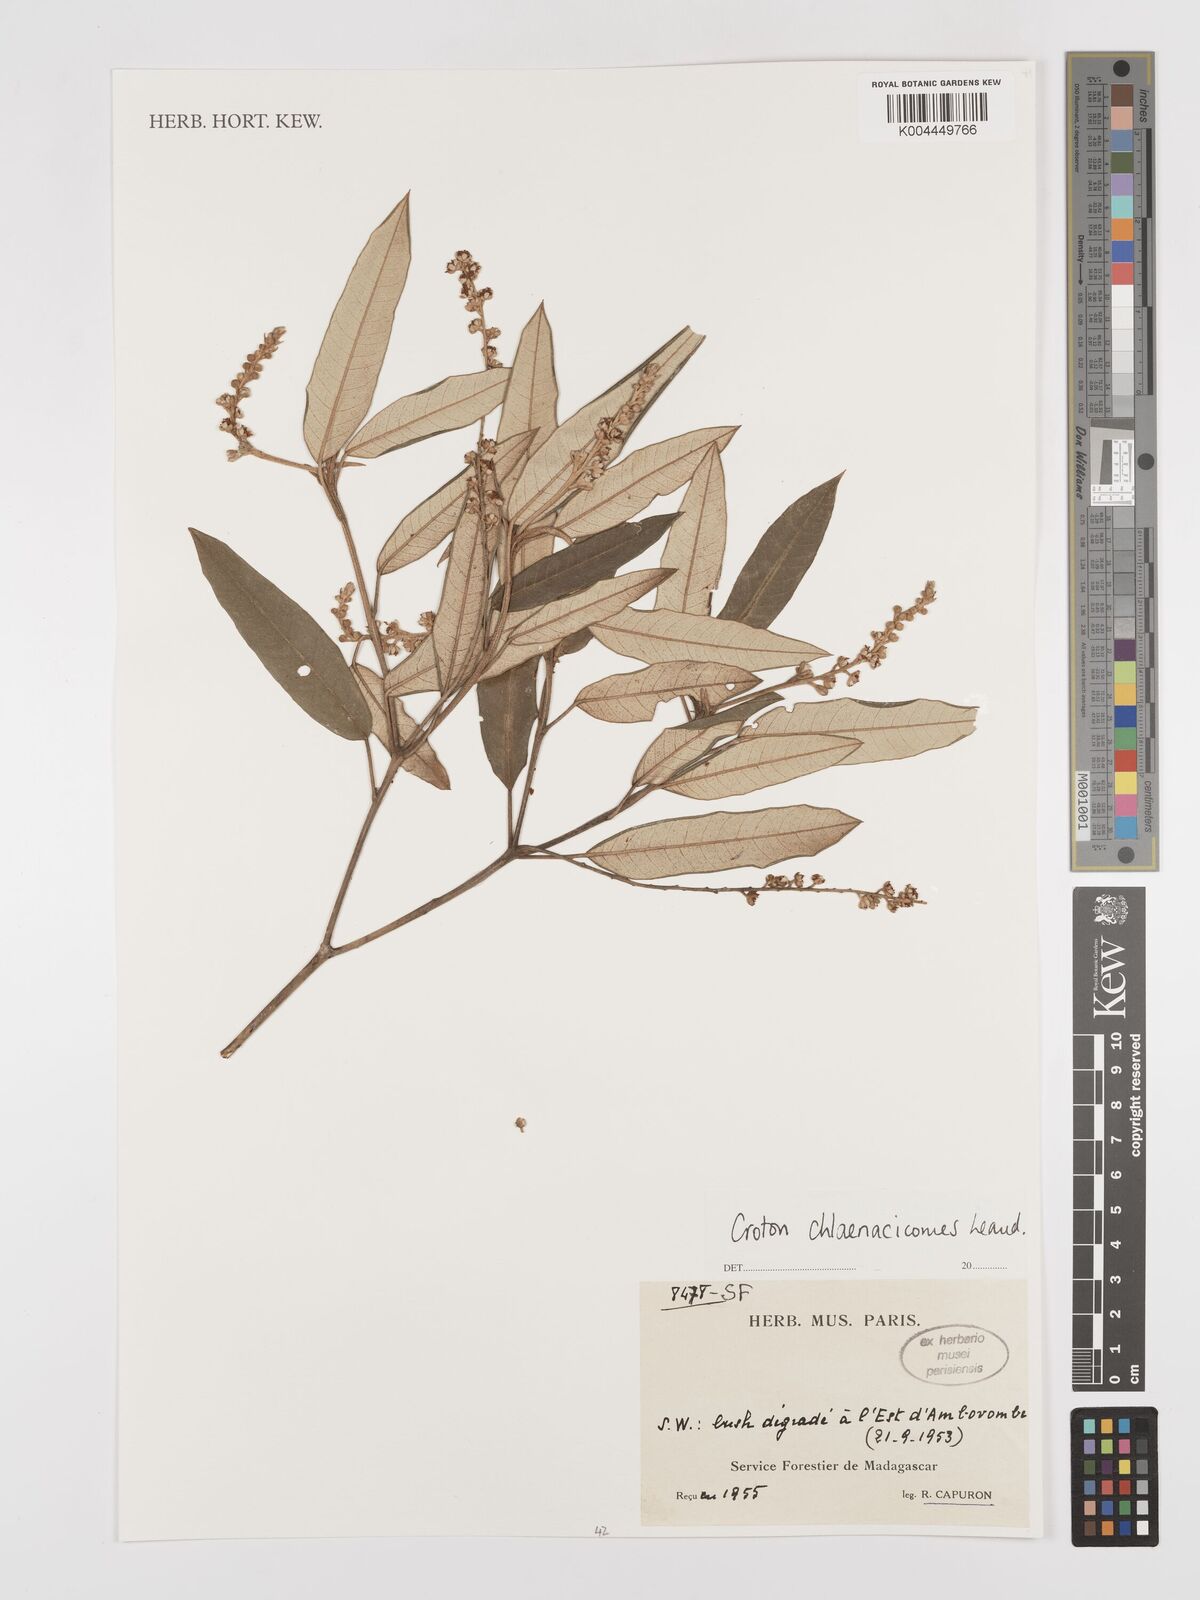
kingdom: Plantae
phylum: Tracheophyta
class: Magnoliopsida
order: Malpighiales
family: Euphorbiaceae
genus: Croton
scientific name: Croton chlaenacicomes
